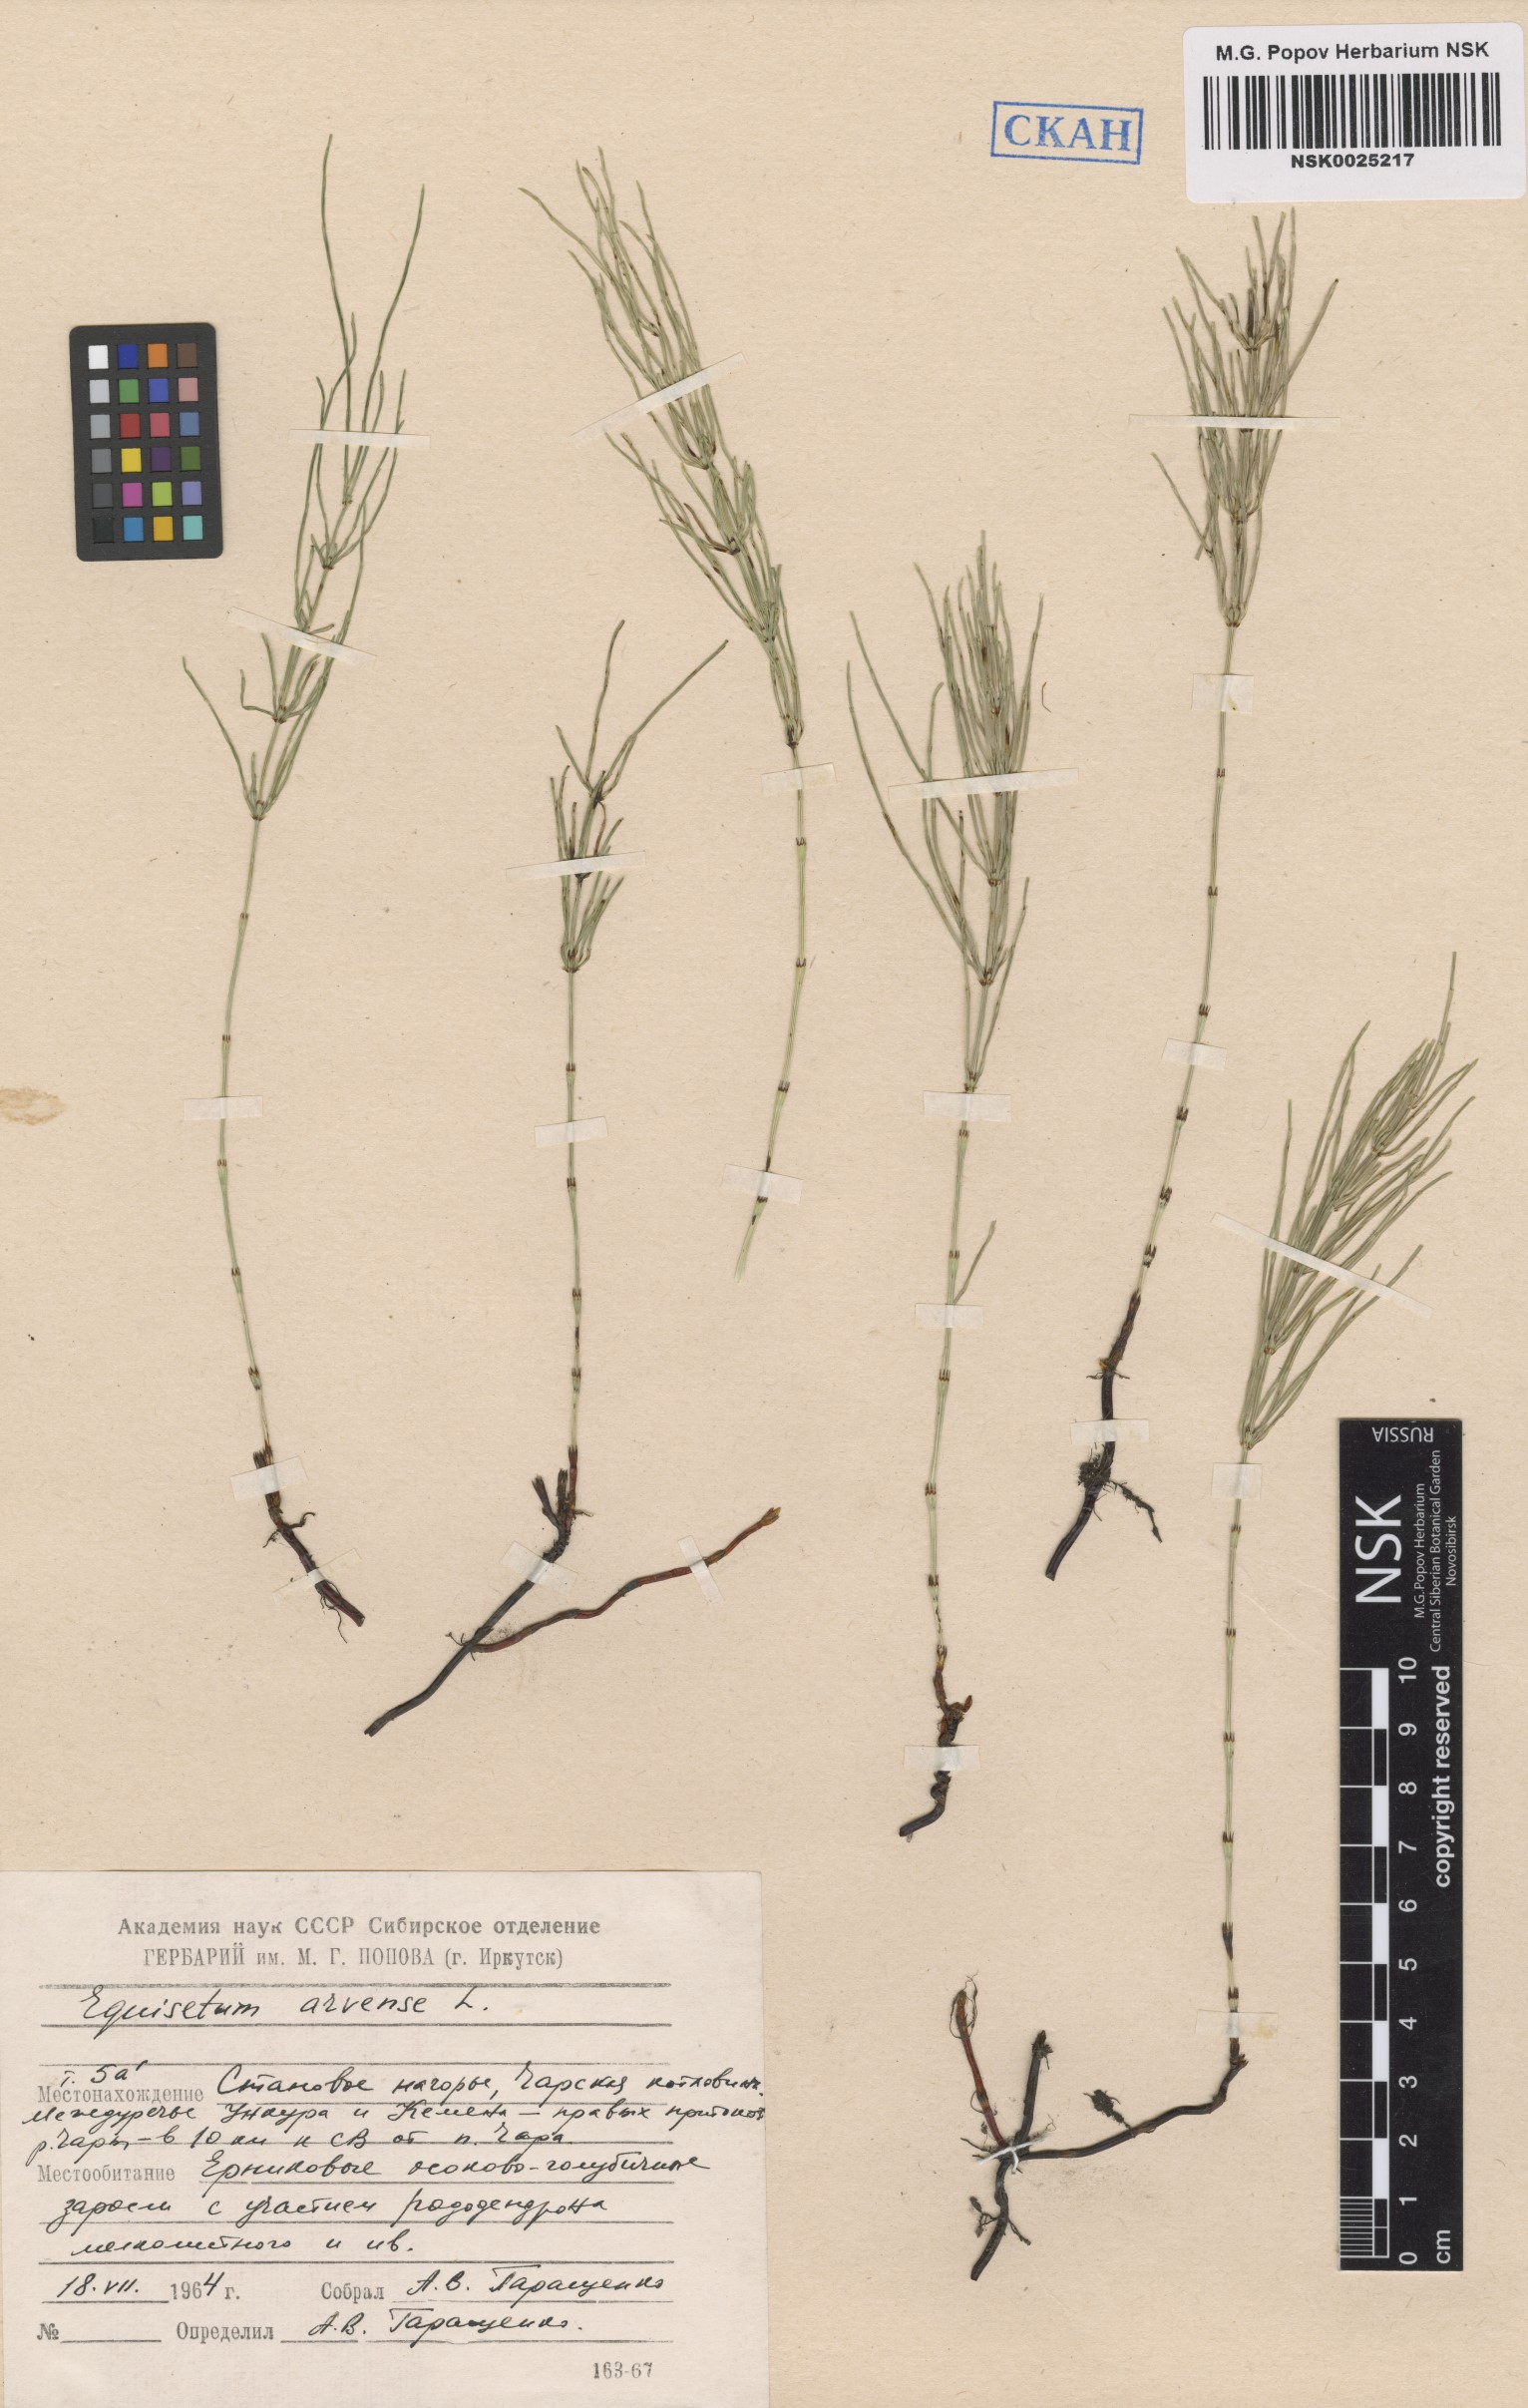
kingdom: Plantae
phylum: Tracheophyta
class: Polypodiopsida
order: Equisetales
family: Equisetaceae
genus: Equisetum
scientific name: Equisetum arvense
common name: Field horsetail
